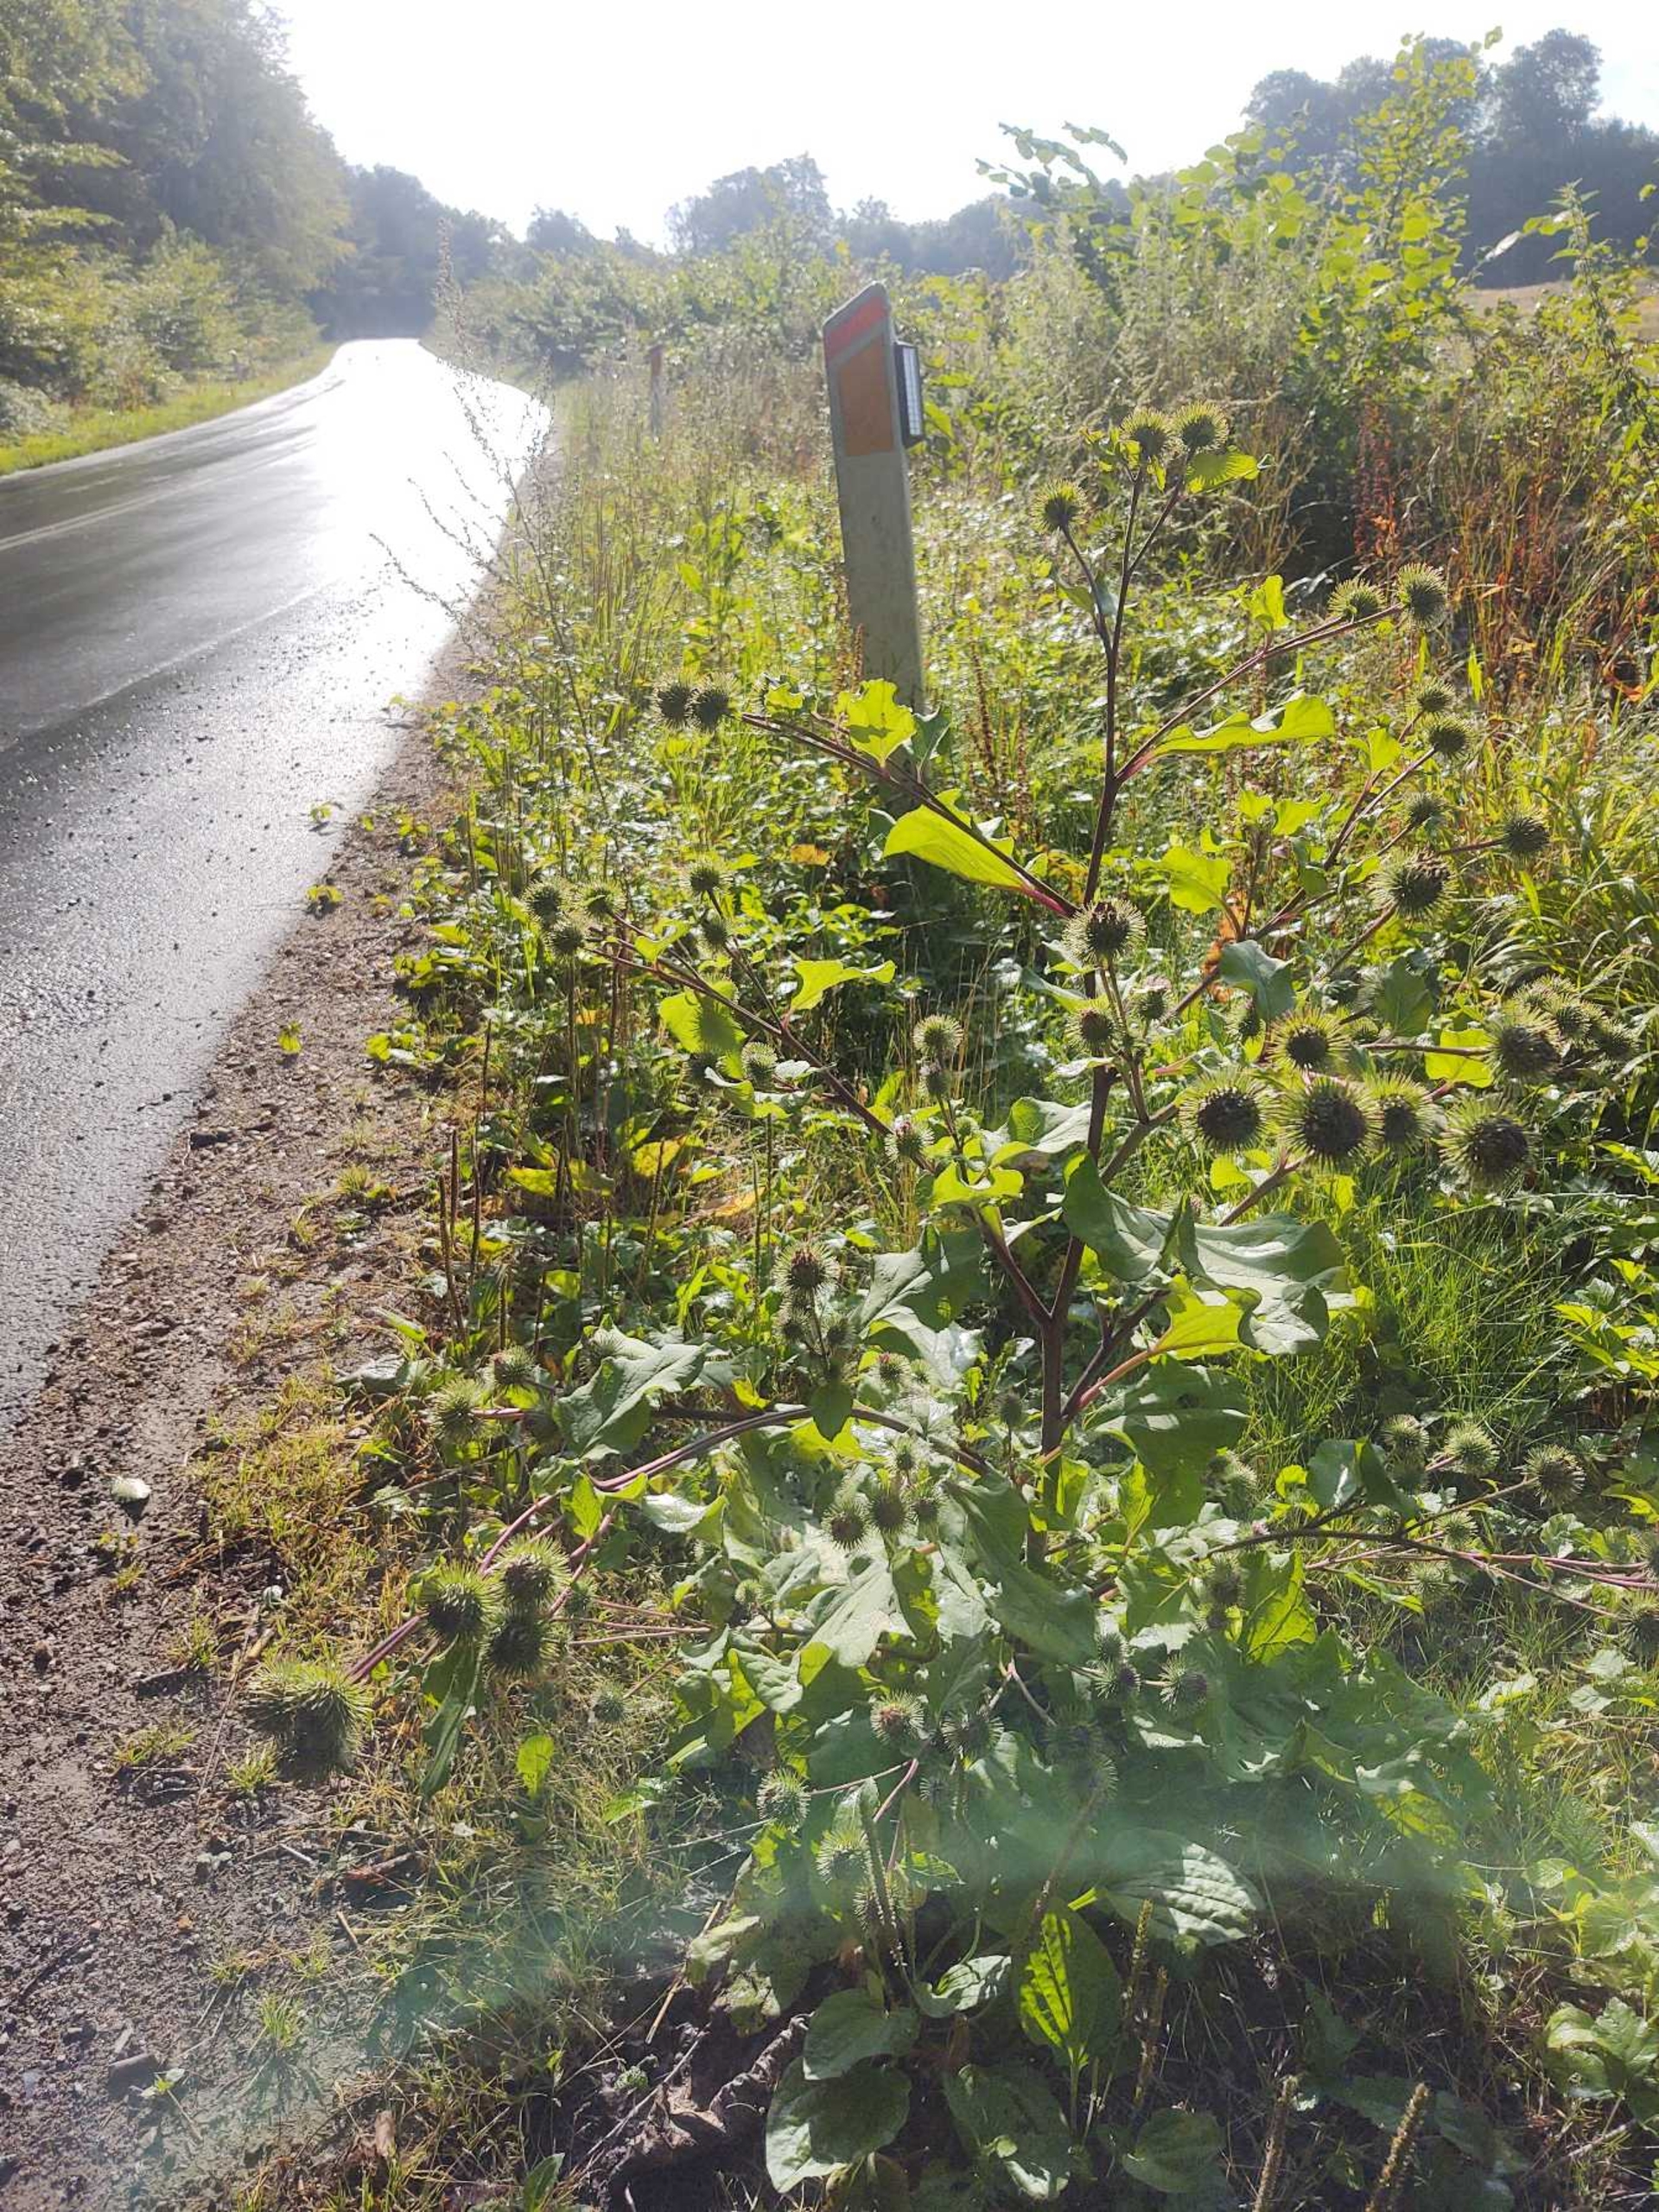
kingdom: Plantae
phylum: Tracheophyta
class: Magnoliopsida
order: Asterales
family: Asteraceae
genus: Arctium
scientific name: Arctium lappa
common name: Glat burre
